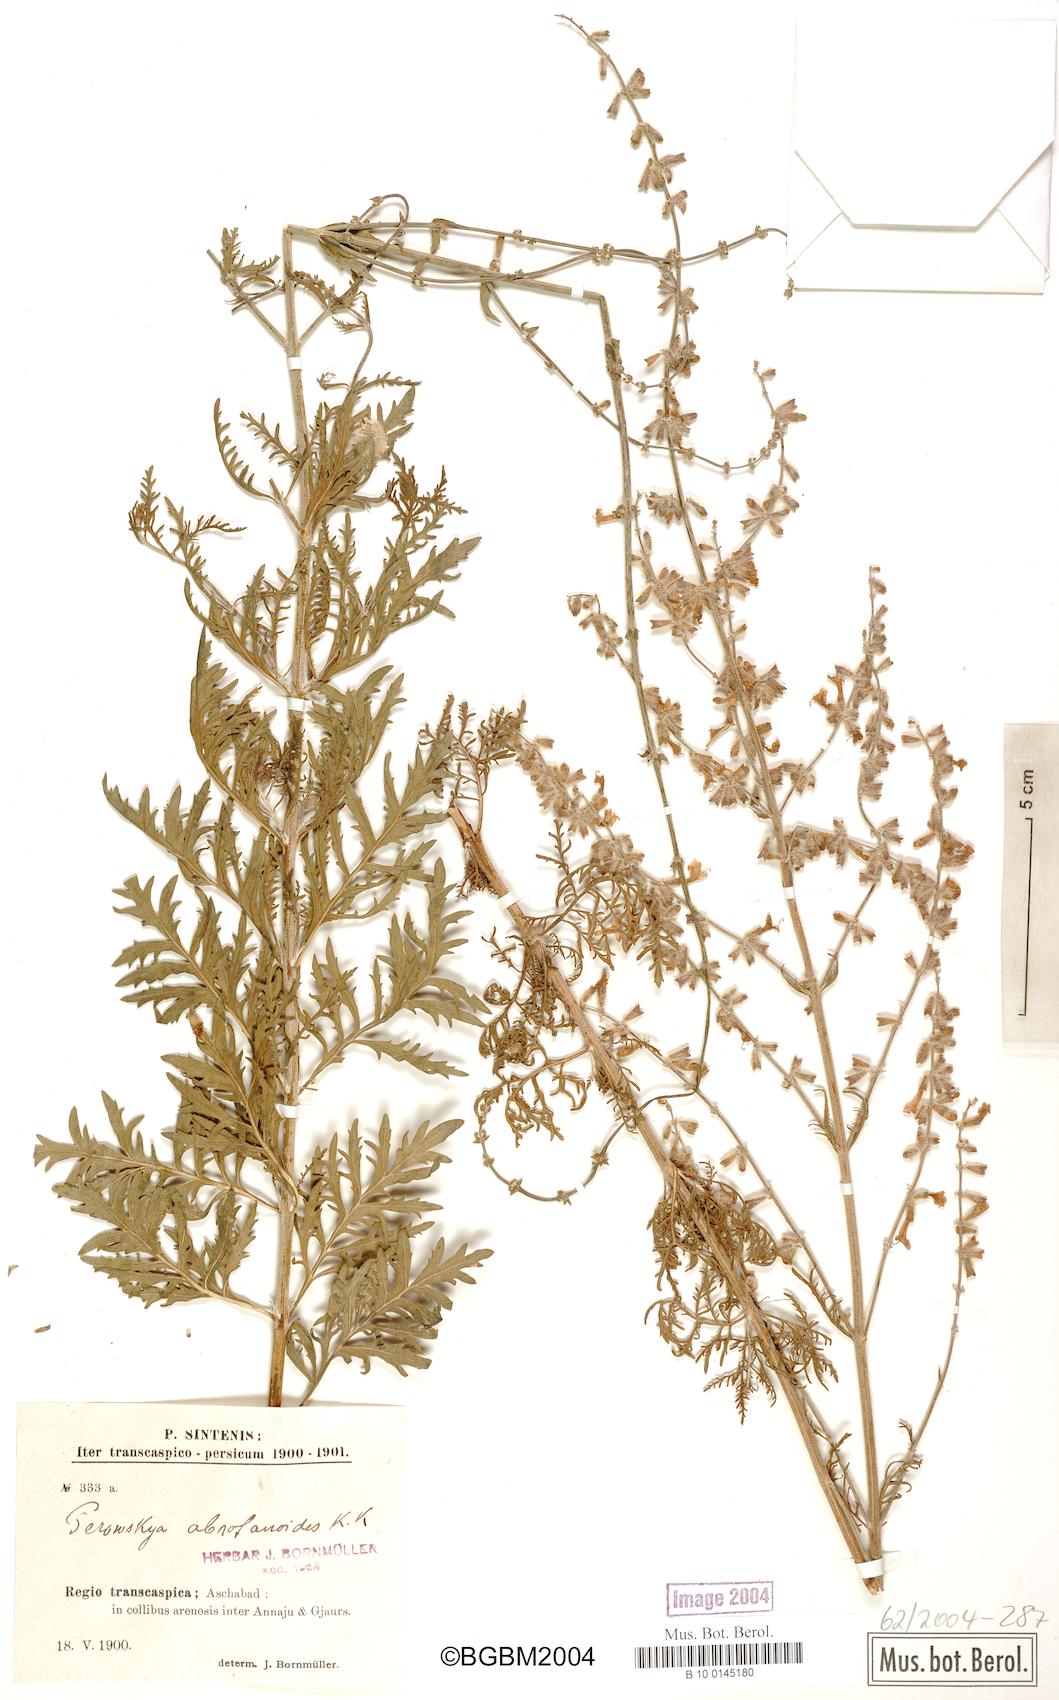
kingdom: Plantae
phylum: Tracheophyta
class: Magnoliopsida
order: Lamiales
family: Lamiaceae
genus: Salvia
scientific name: Salvia abrotanoides
